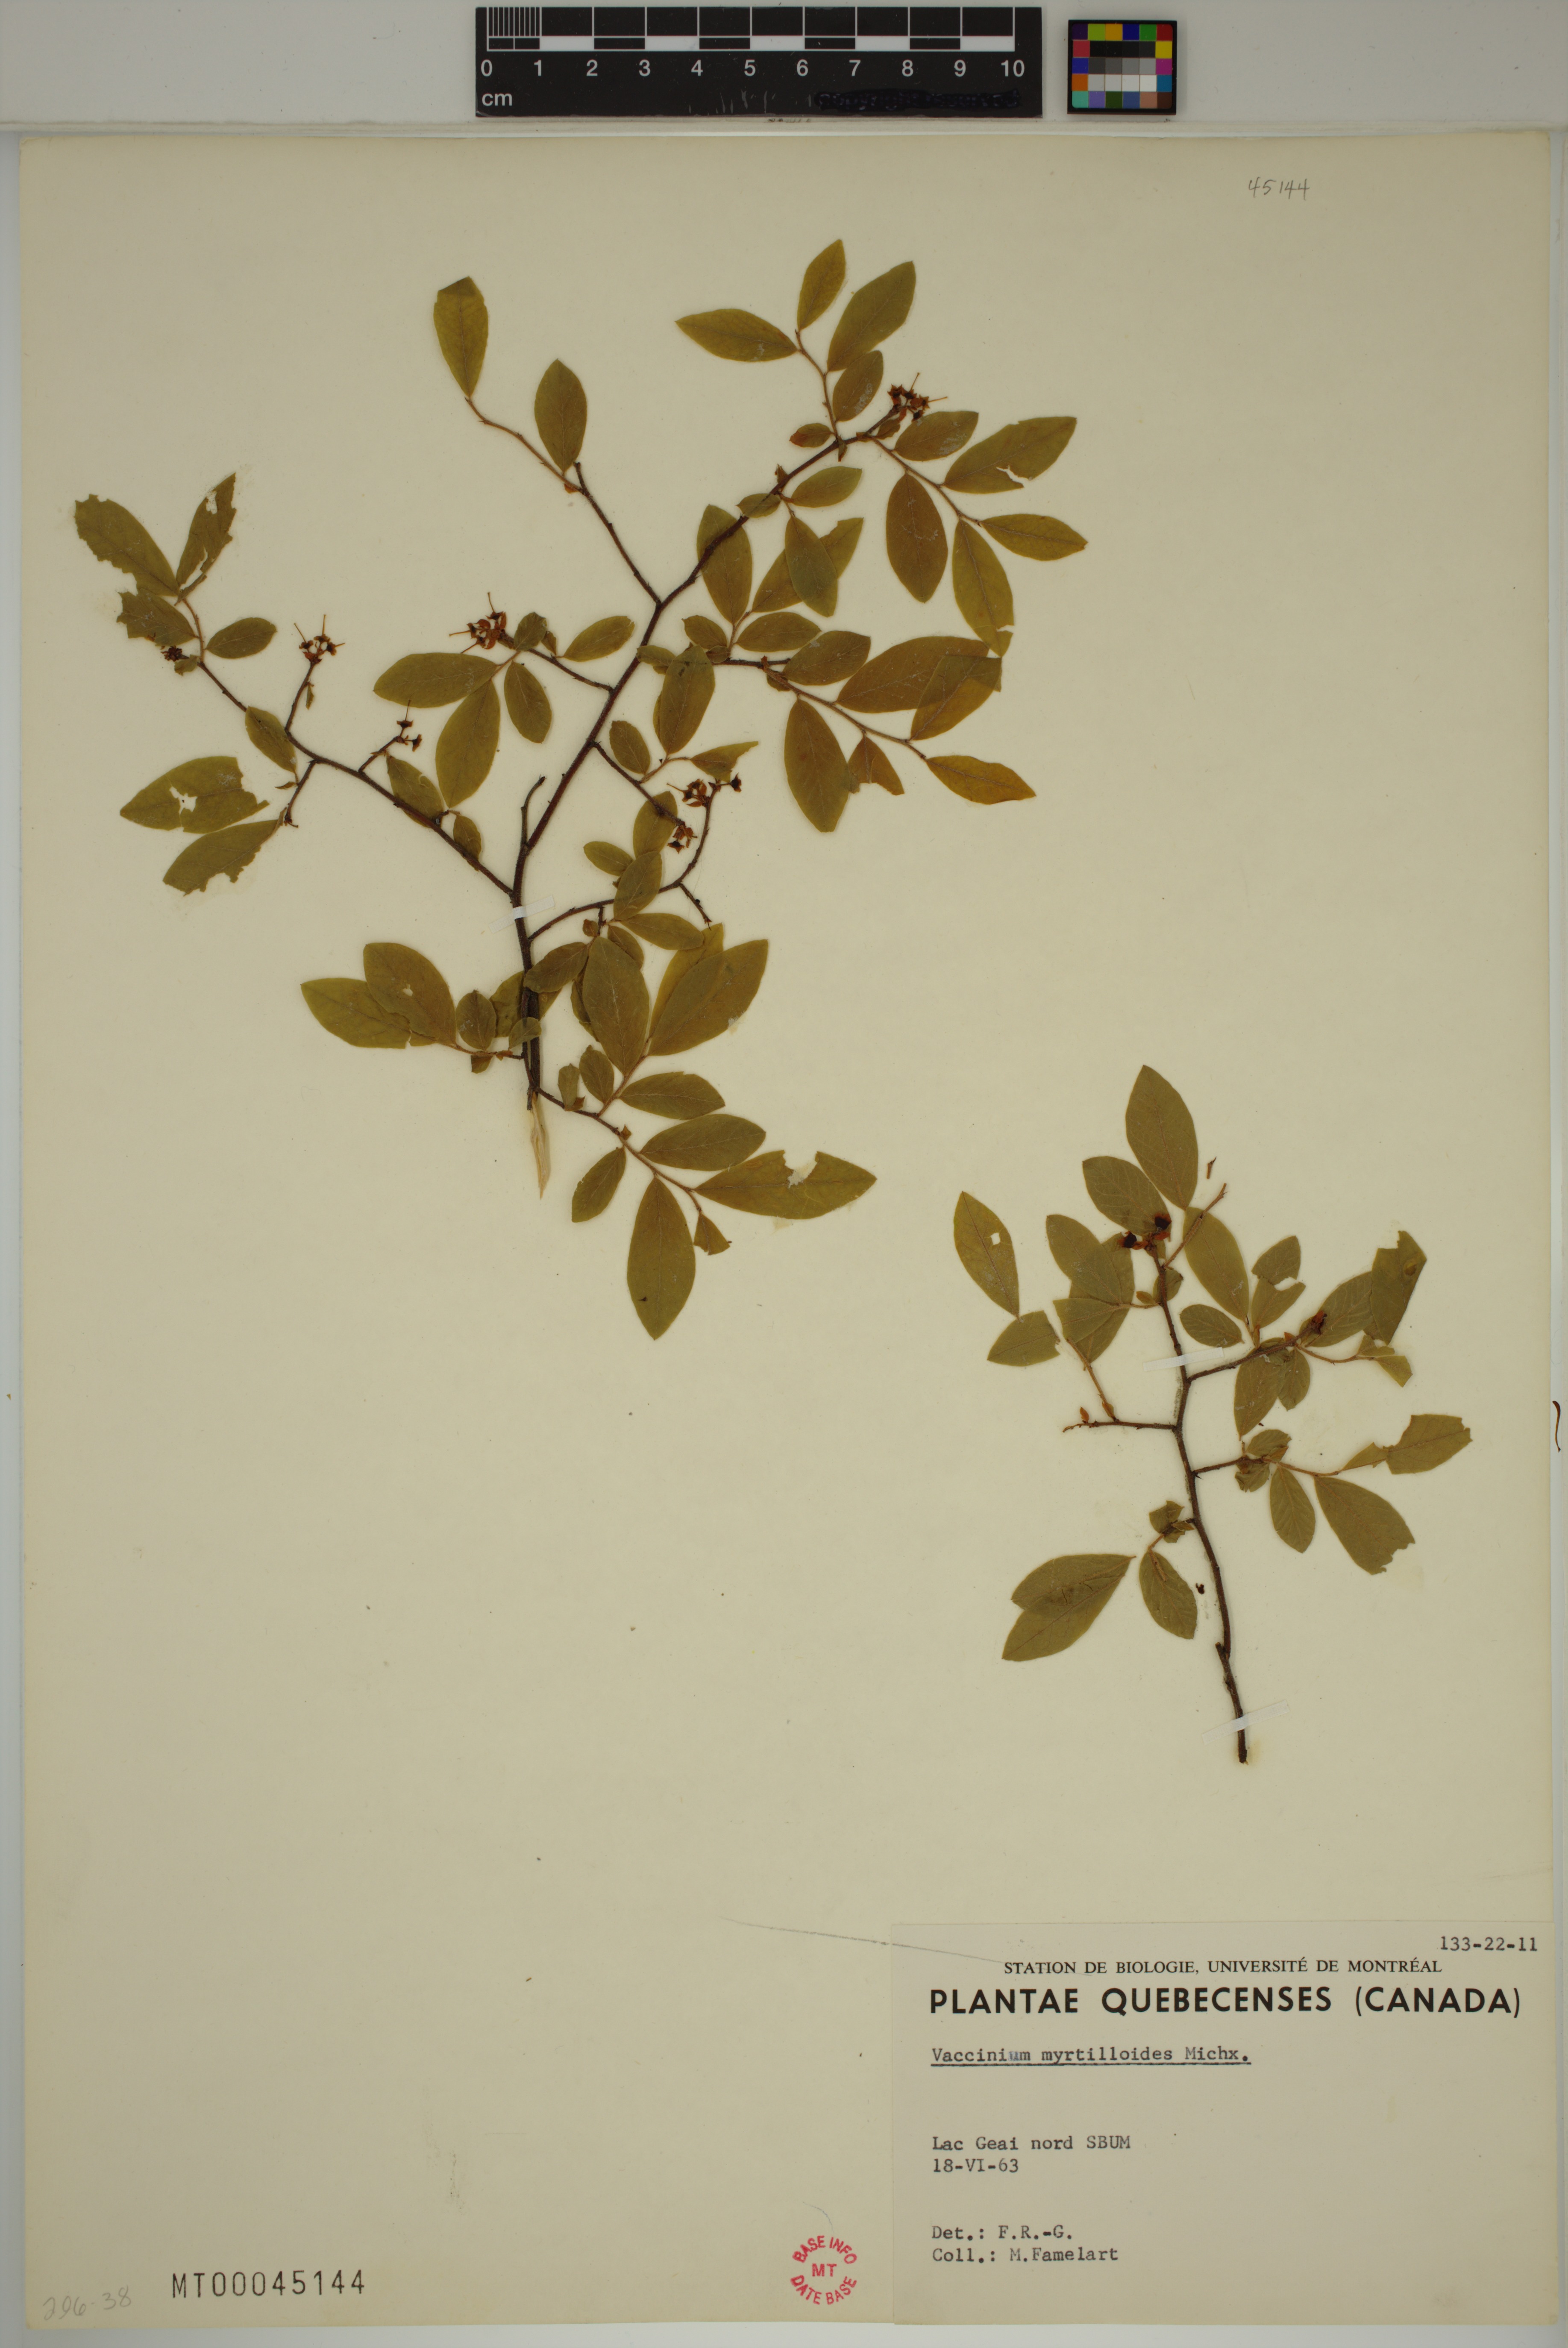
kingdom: Plantae
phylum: Tracheophyta
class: Magnoliopsida
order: Ericales
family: Ericaceae
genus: Vaccinium
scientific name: Vaccinium myrtilloides
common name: Canada blueberry
